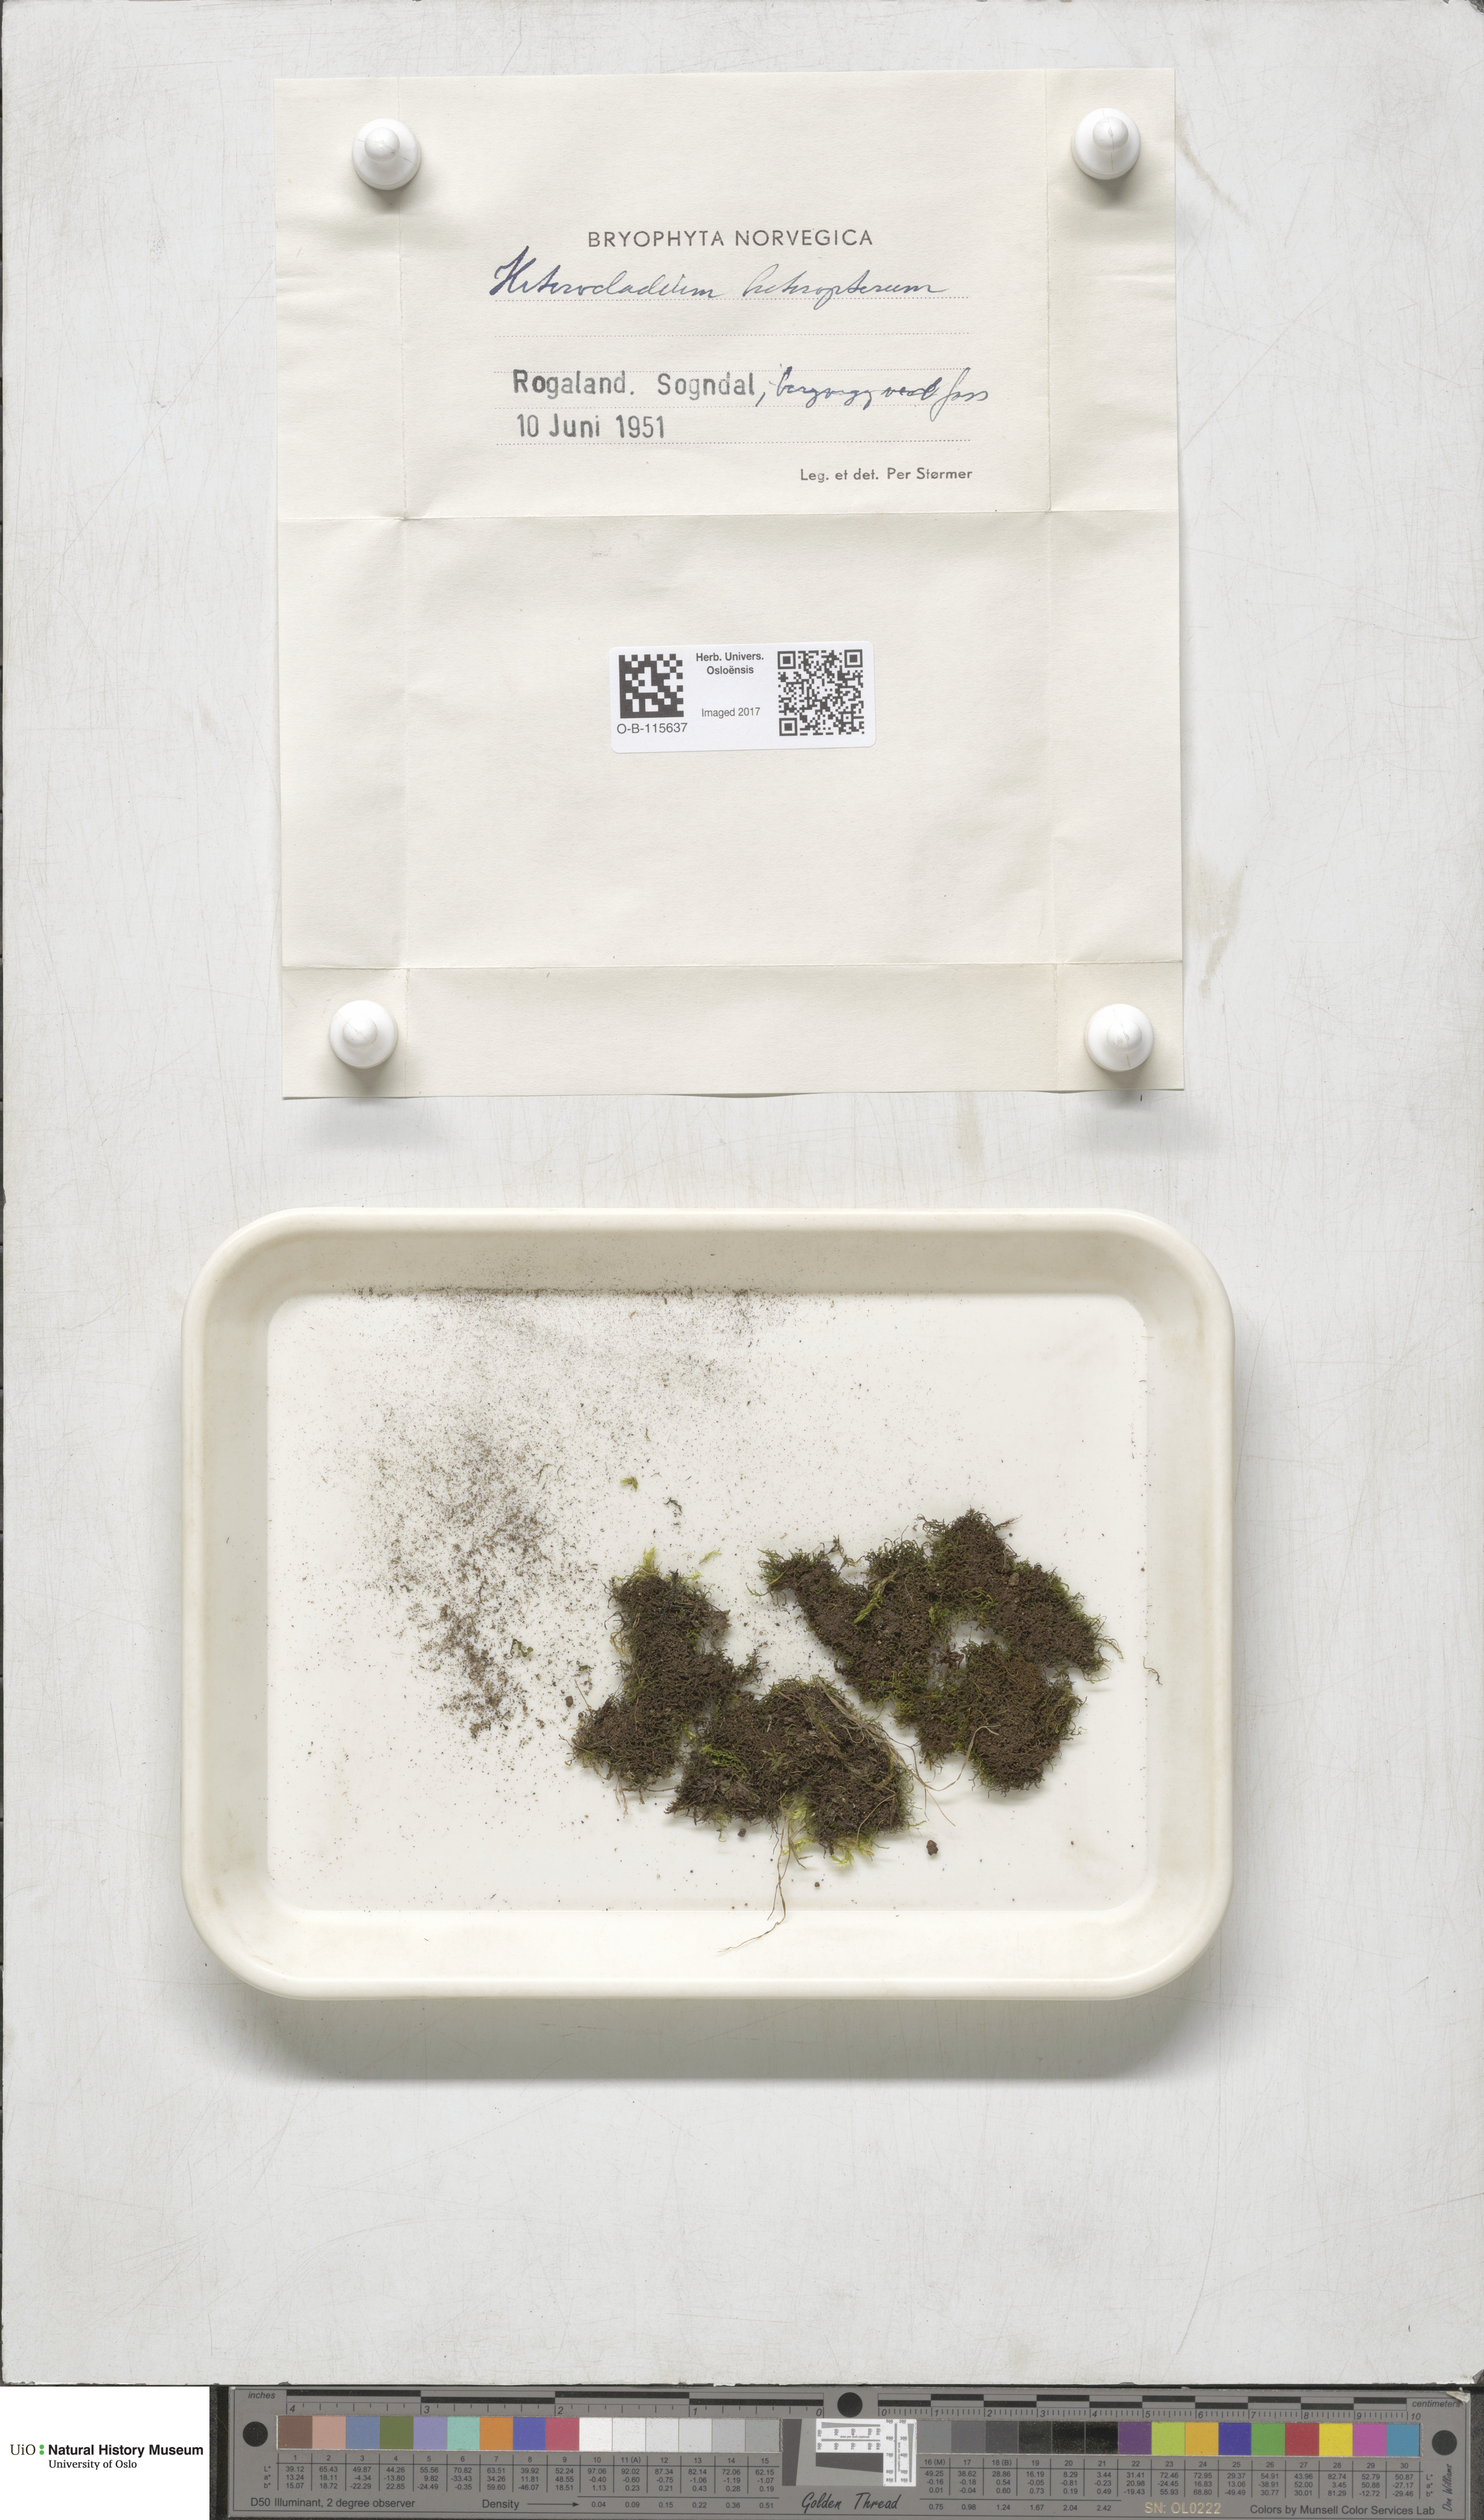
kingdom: Plantae
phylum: Bryophyta
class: Bryopsida
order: Hypnales
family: Lembophyllaceae
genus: Heterocladium
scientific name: Heterocladium heteropterum
